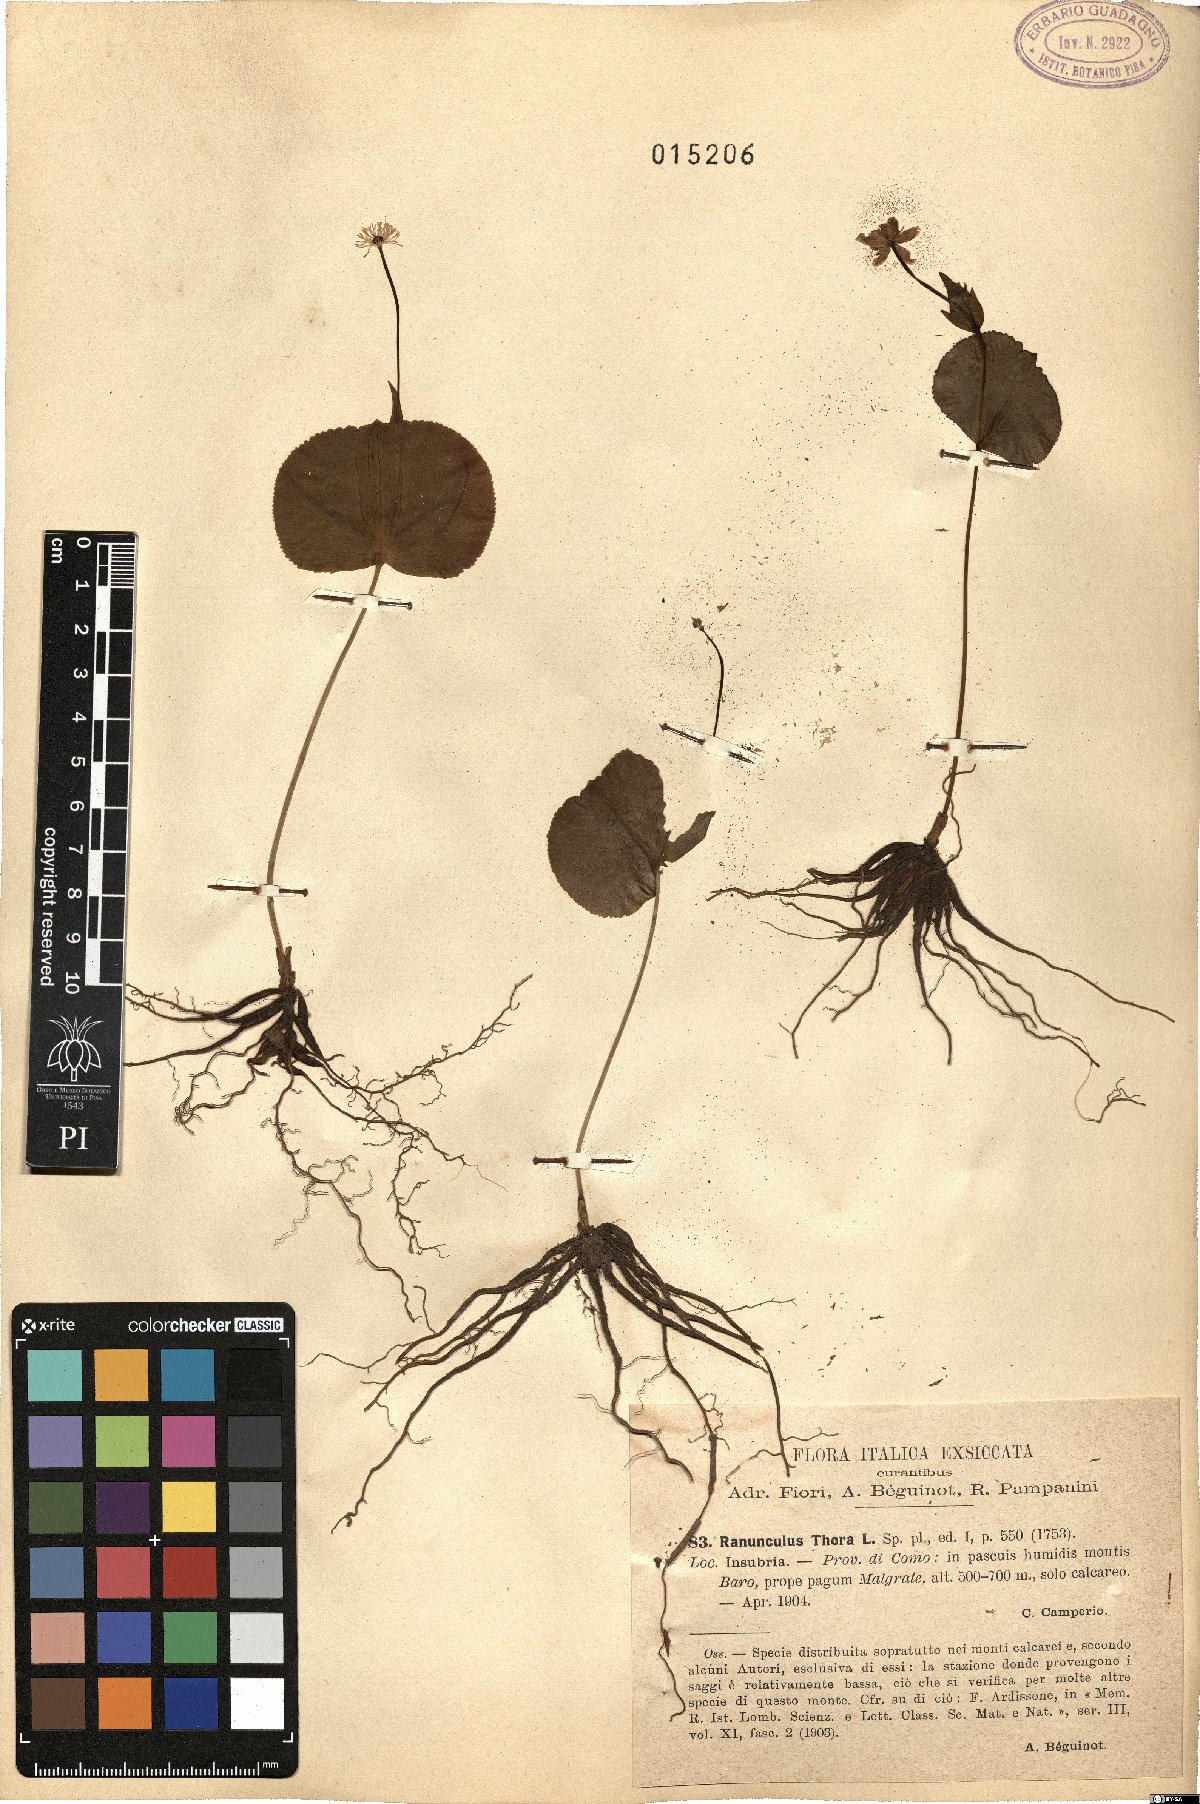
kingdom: Plantae
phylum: Tracheophyta
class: Magnoliopsida
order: Ranunculales
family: Ranunculaceae
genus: Ranunculus
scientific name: Ranunculus thora
